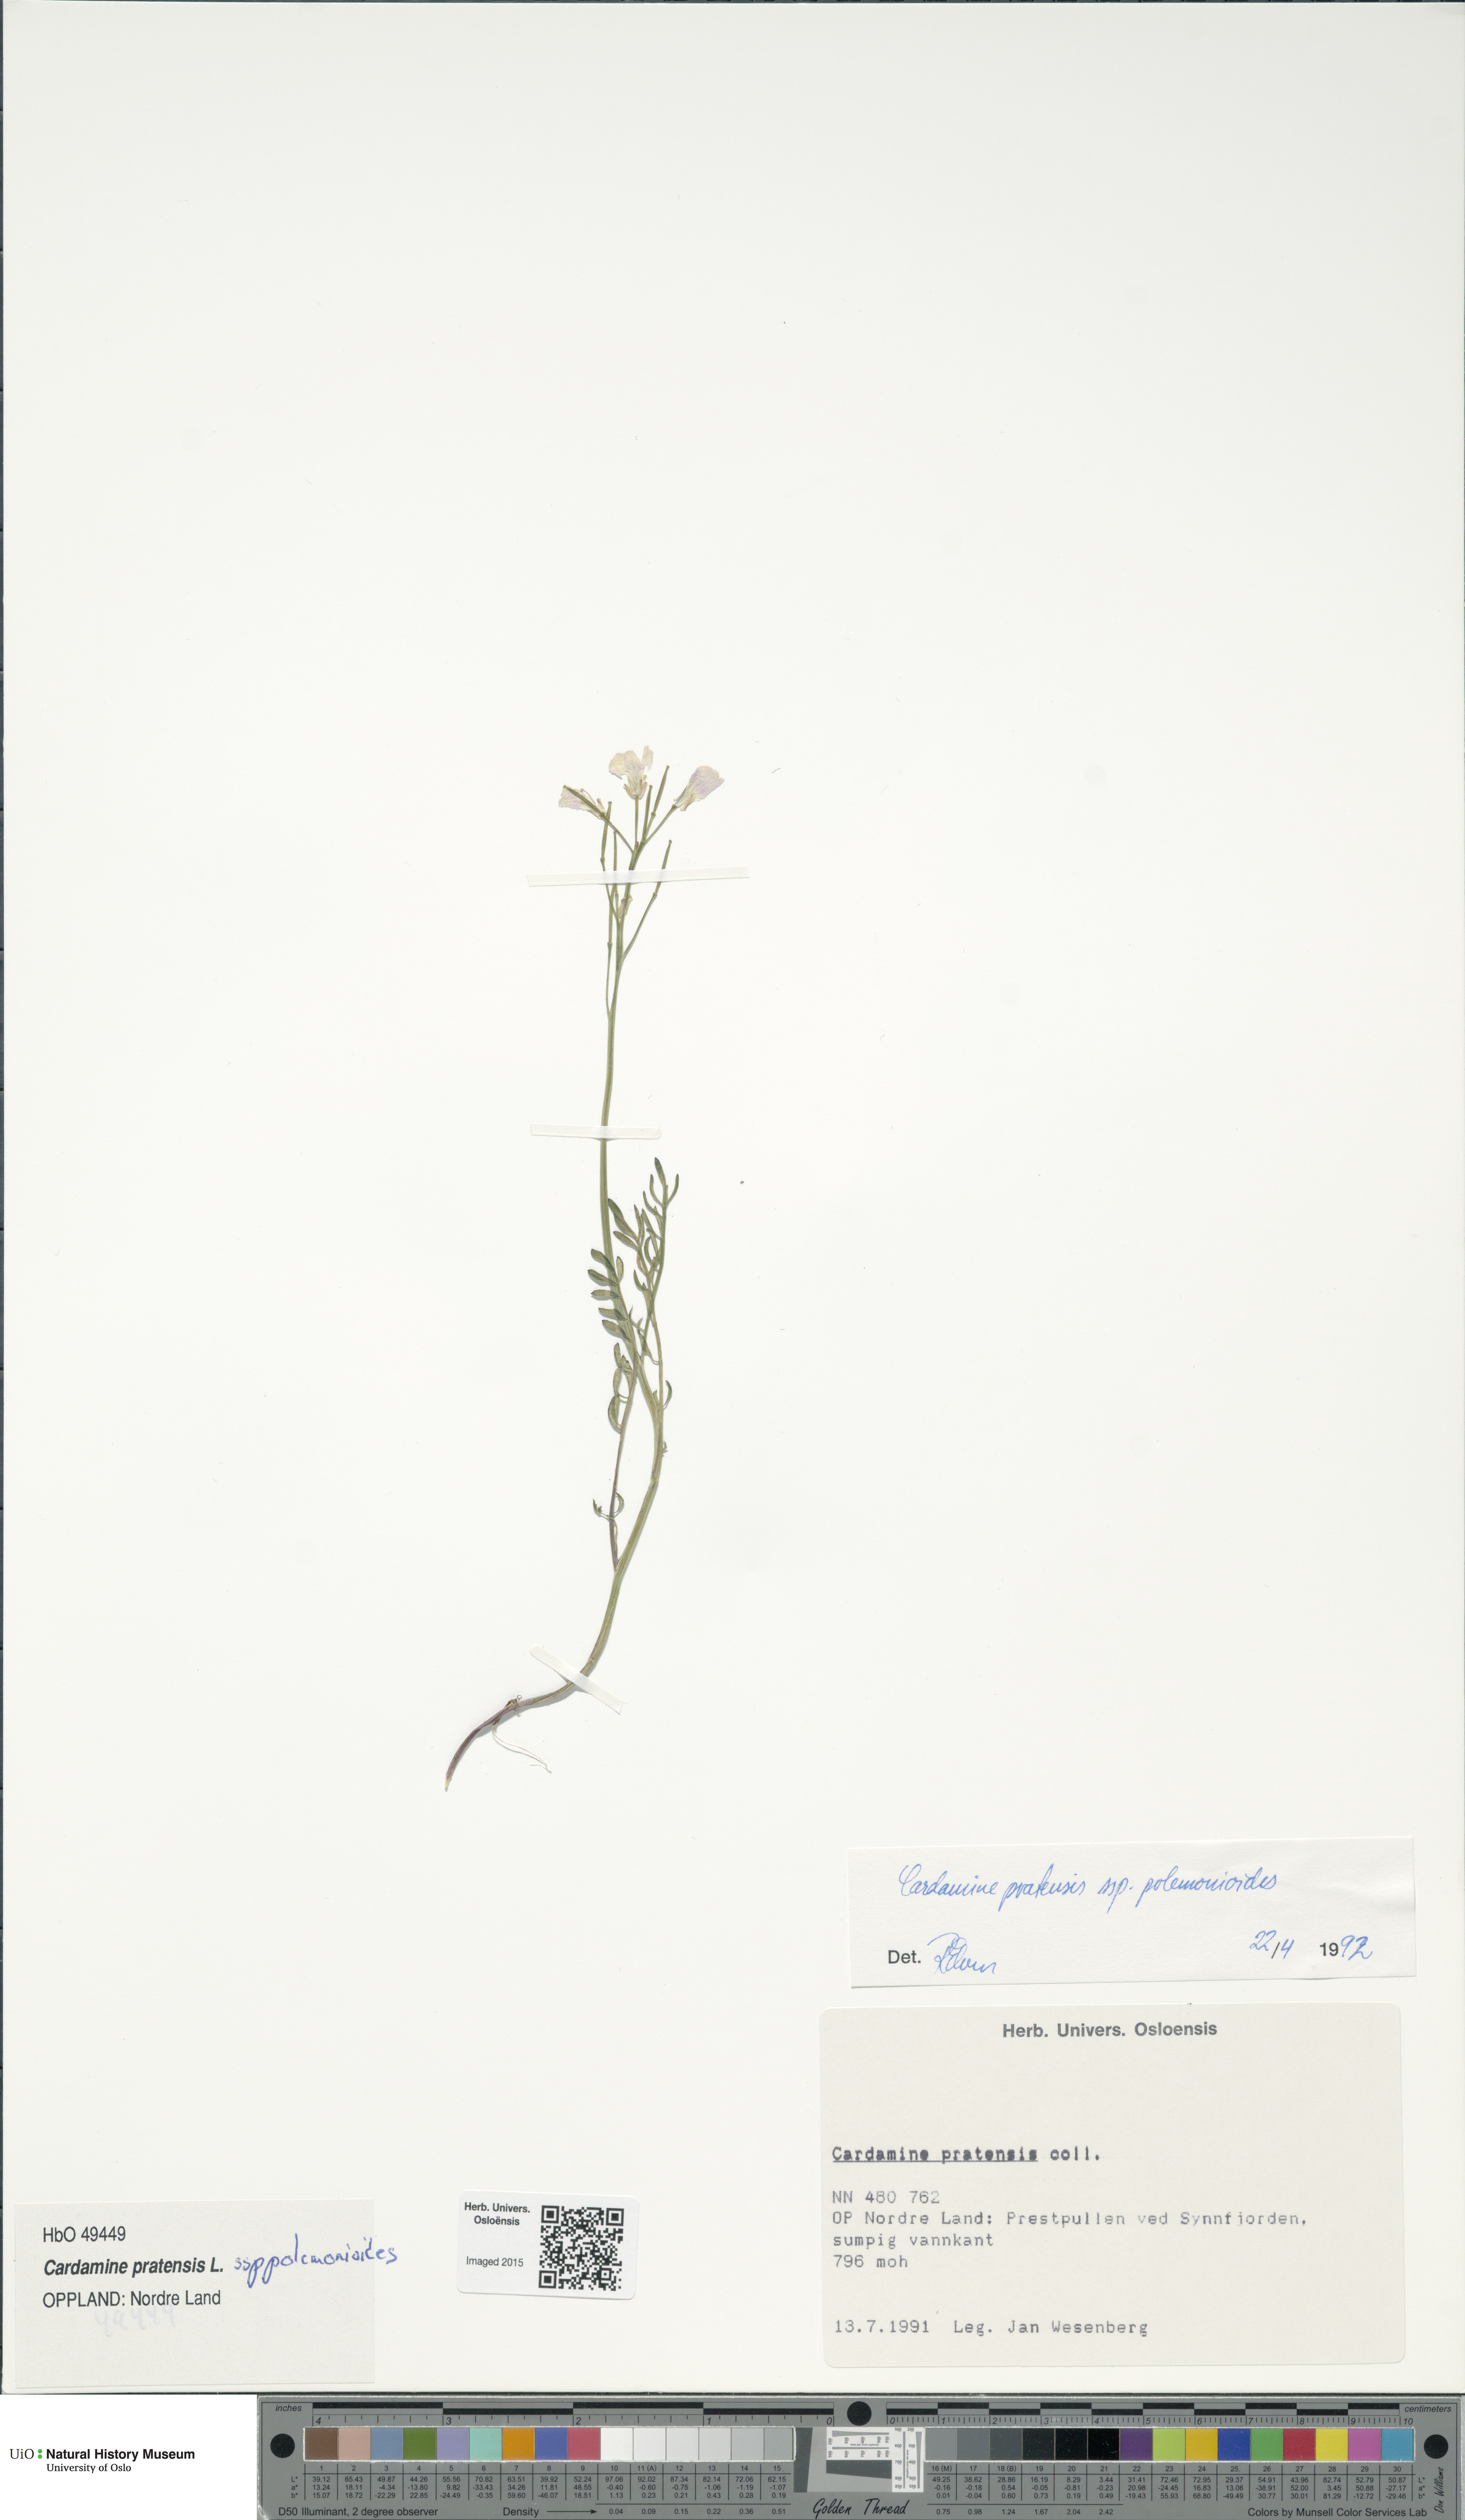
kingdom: Plantae
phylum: Tracheophyta
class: Magnoliopsida
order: Brassicales
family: Brassicaceae
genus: Cardamine
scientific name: Cardamine nymanii
